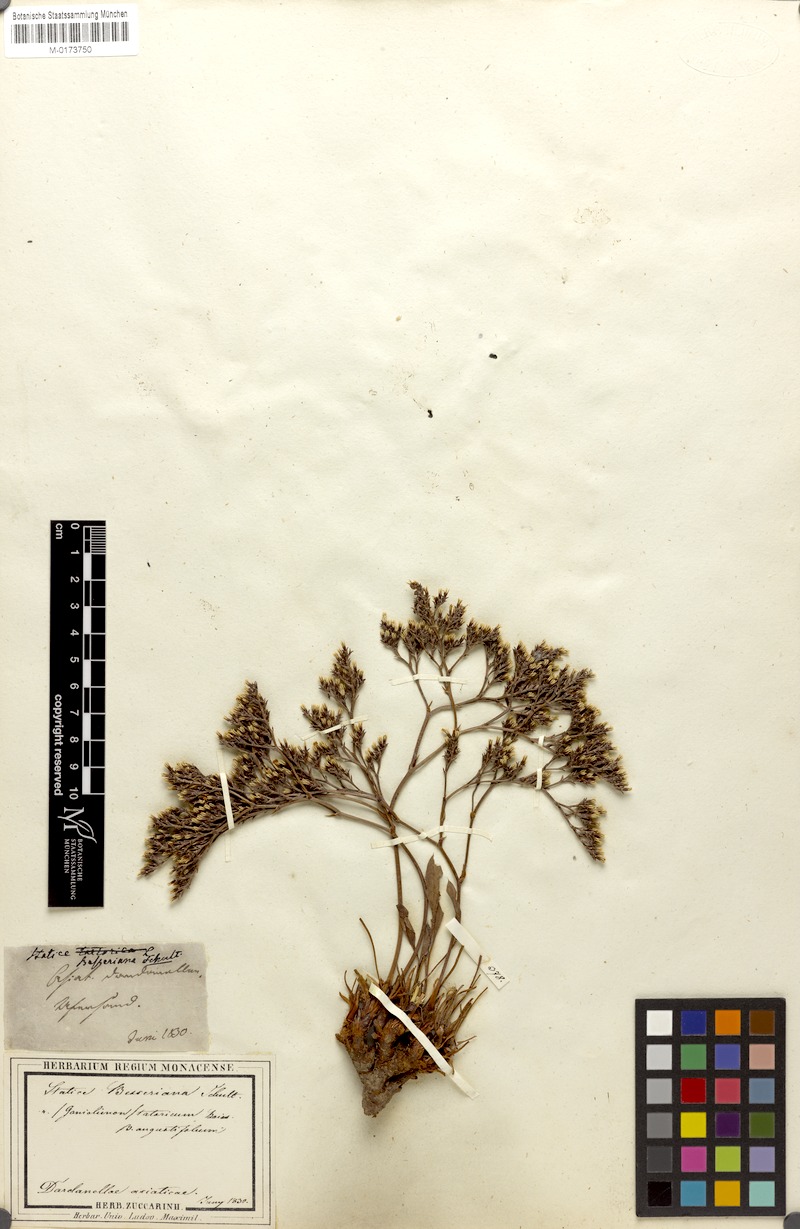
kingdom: Plantae
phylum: Tracheophyta
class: Magnoliopsida
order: Caryophyllales
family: Plumbaginaceae
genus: Goniolimon
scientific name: Goniolimon besserianum
